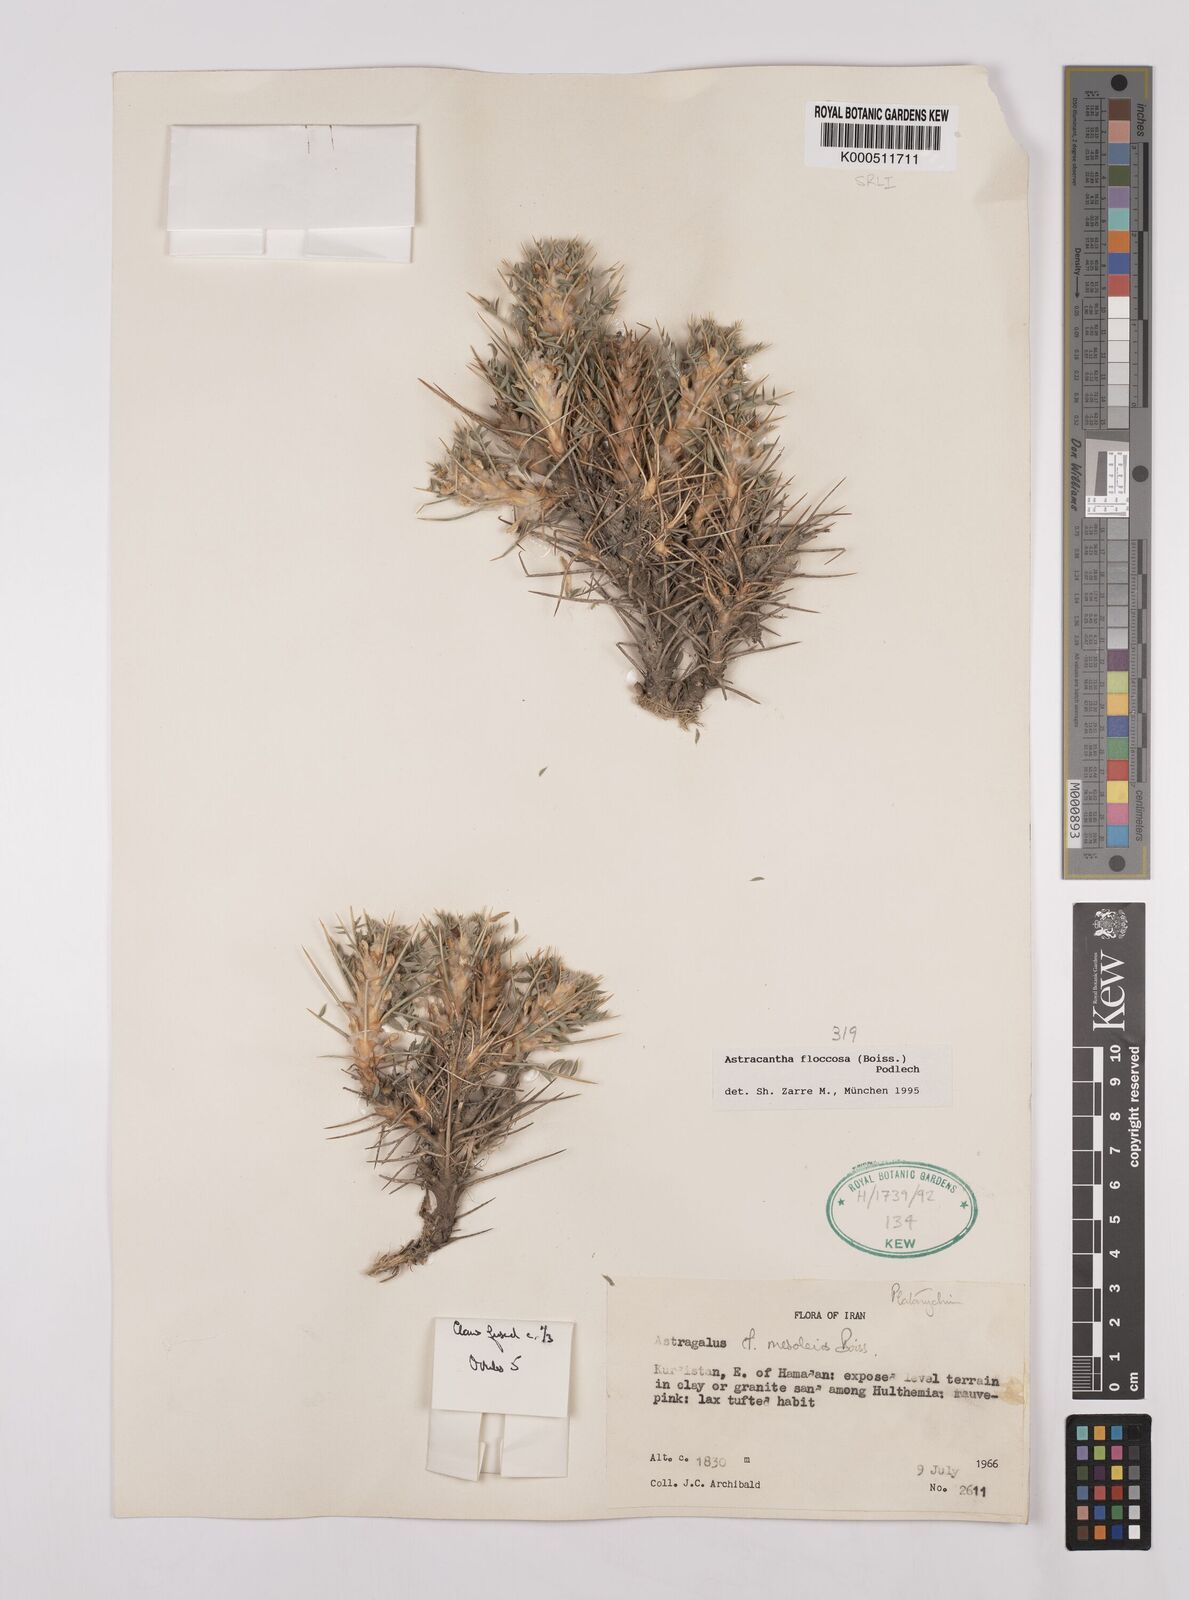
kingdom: Plantae
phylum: Tracheophyta
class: Magnoliopsida
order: Fabales
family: Fabaceae
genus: Astragalus
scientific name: Astragalus floccosus
